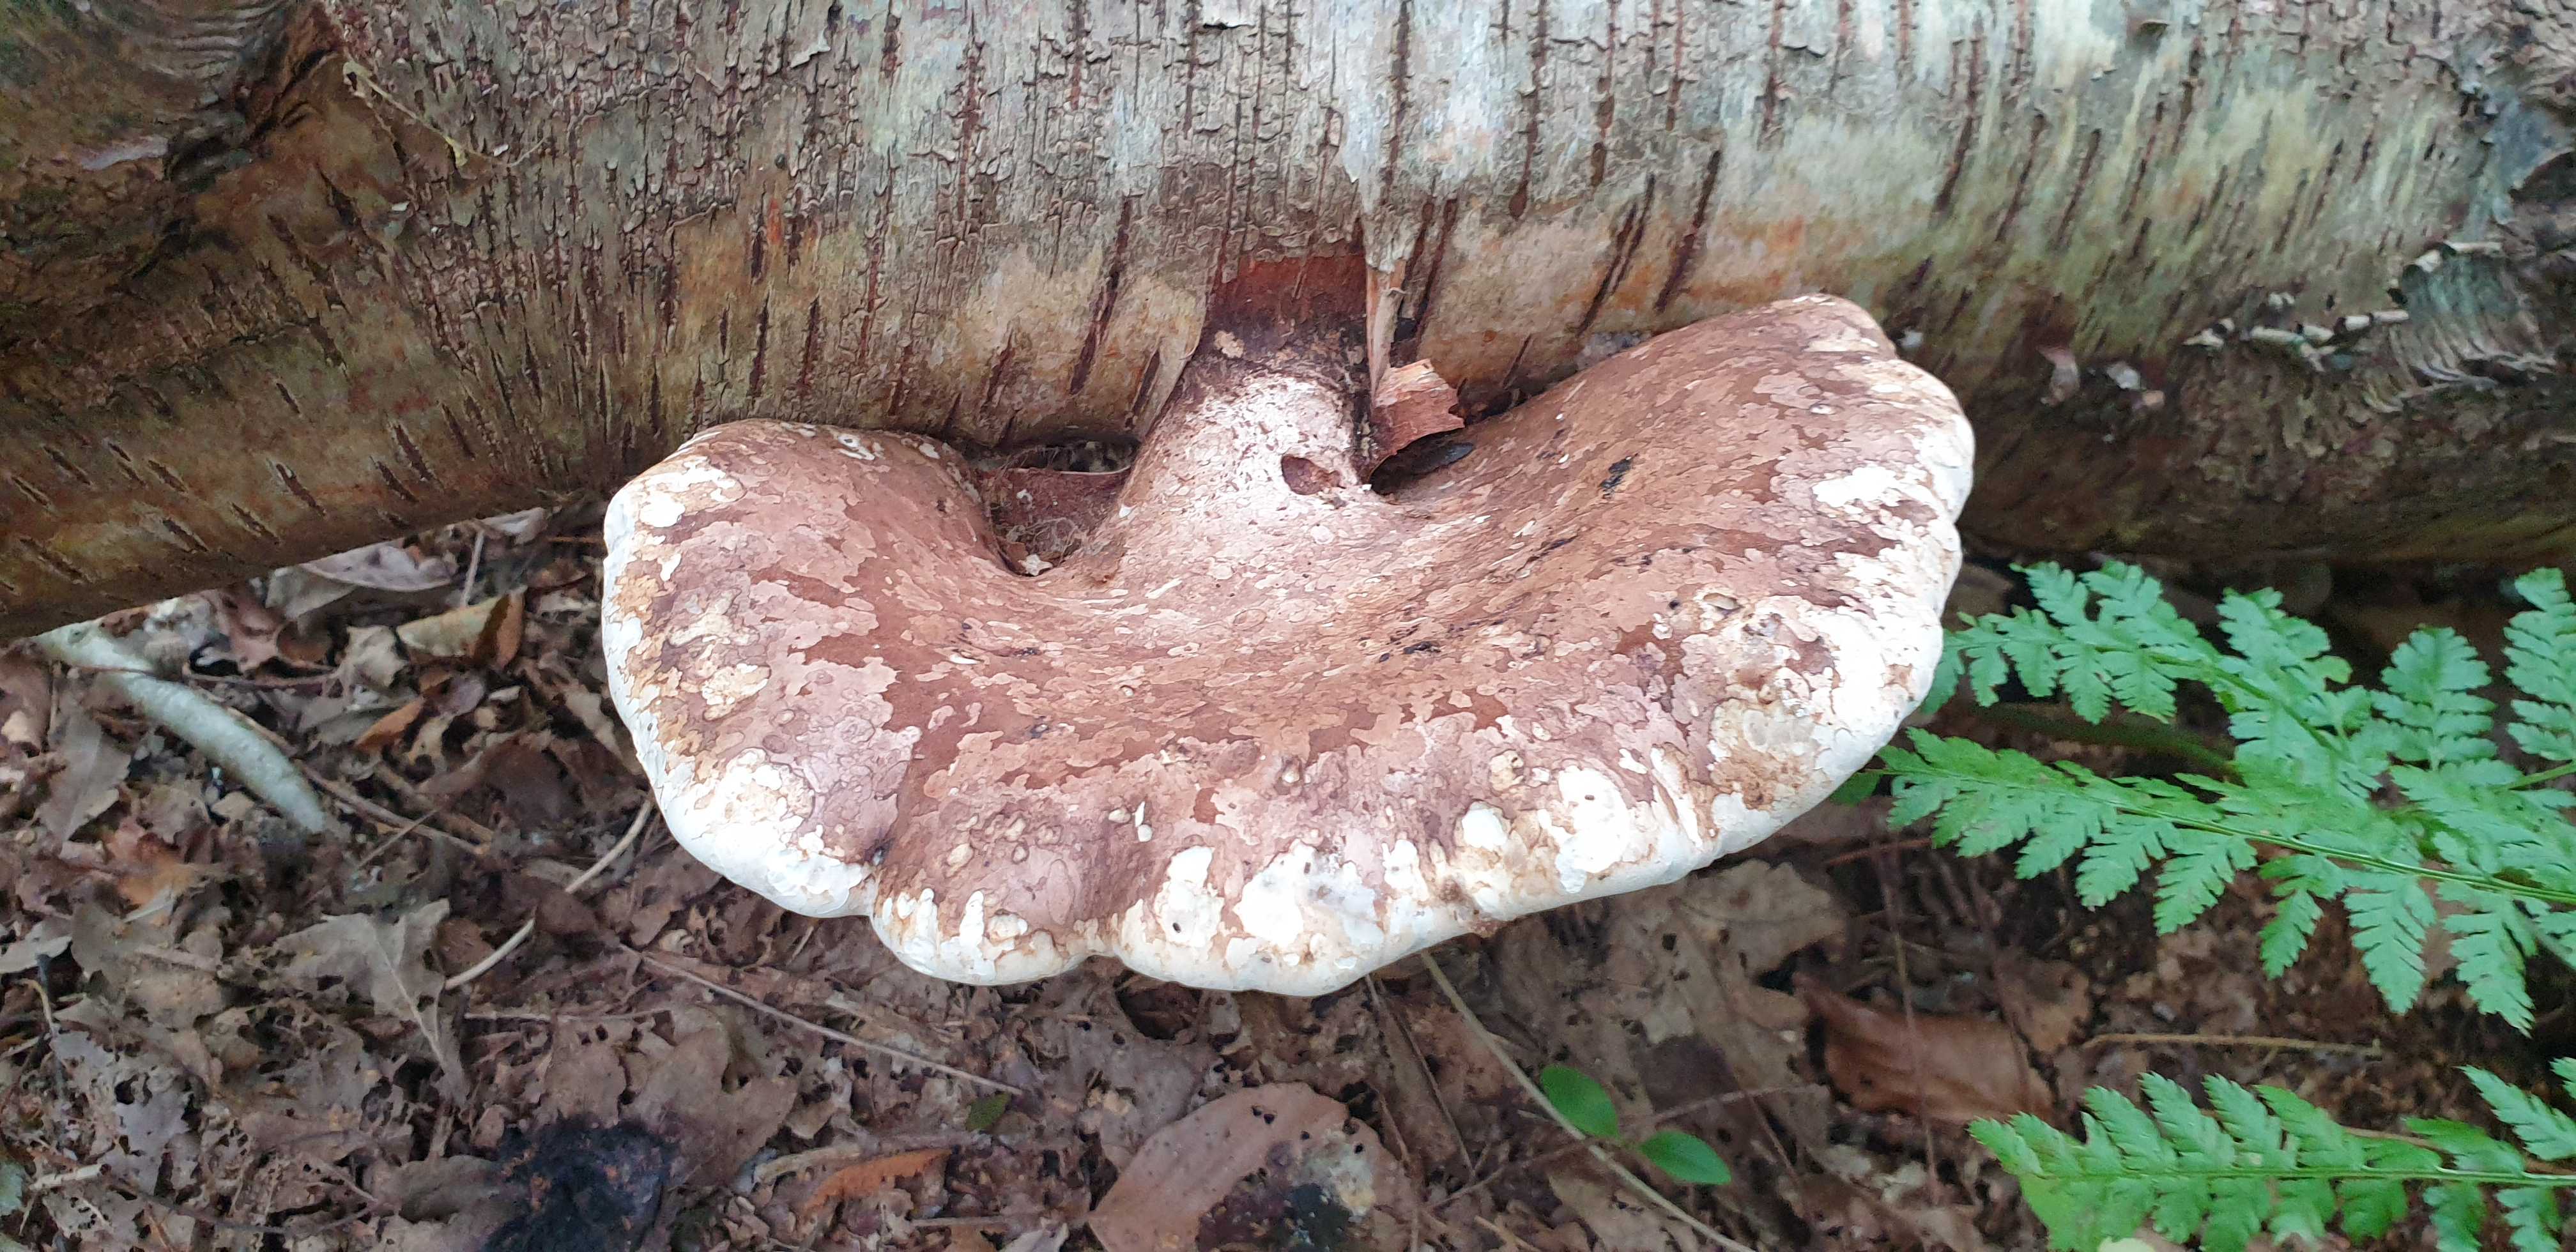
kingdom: Fungi
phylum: Basidiomycota
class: Agaricomycetes
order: Polyporales
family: Fomitopsidaceae
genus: Fomitopsis
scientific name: Fomitopsis betulina
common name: birkeporesvamp
